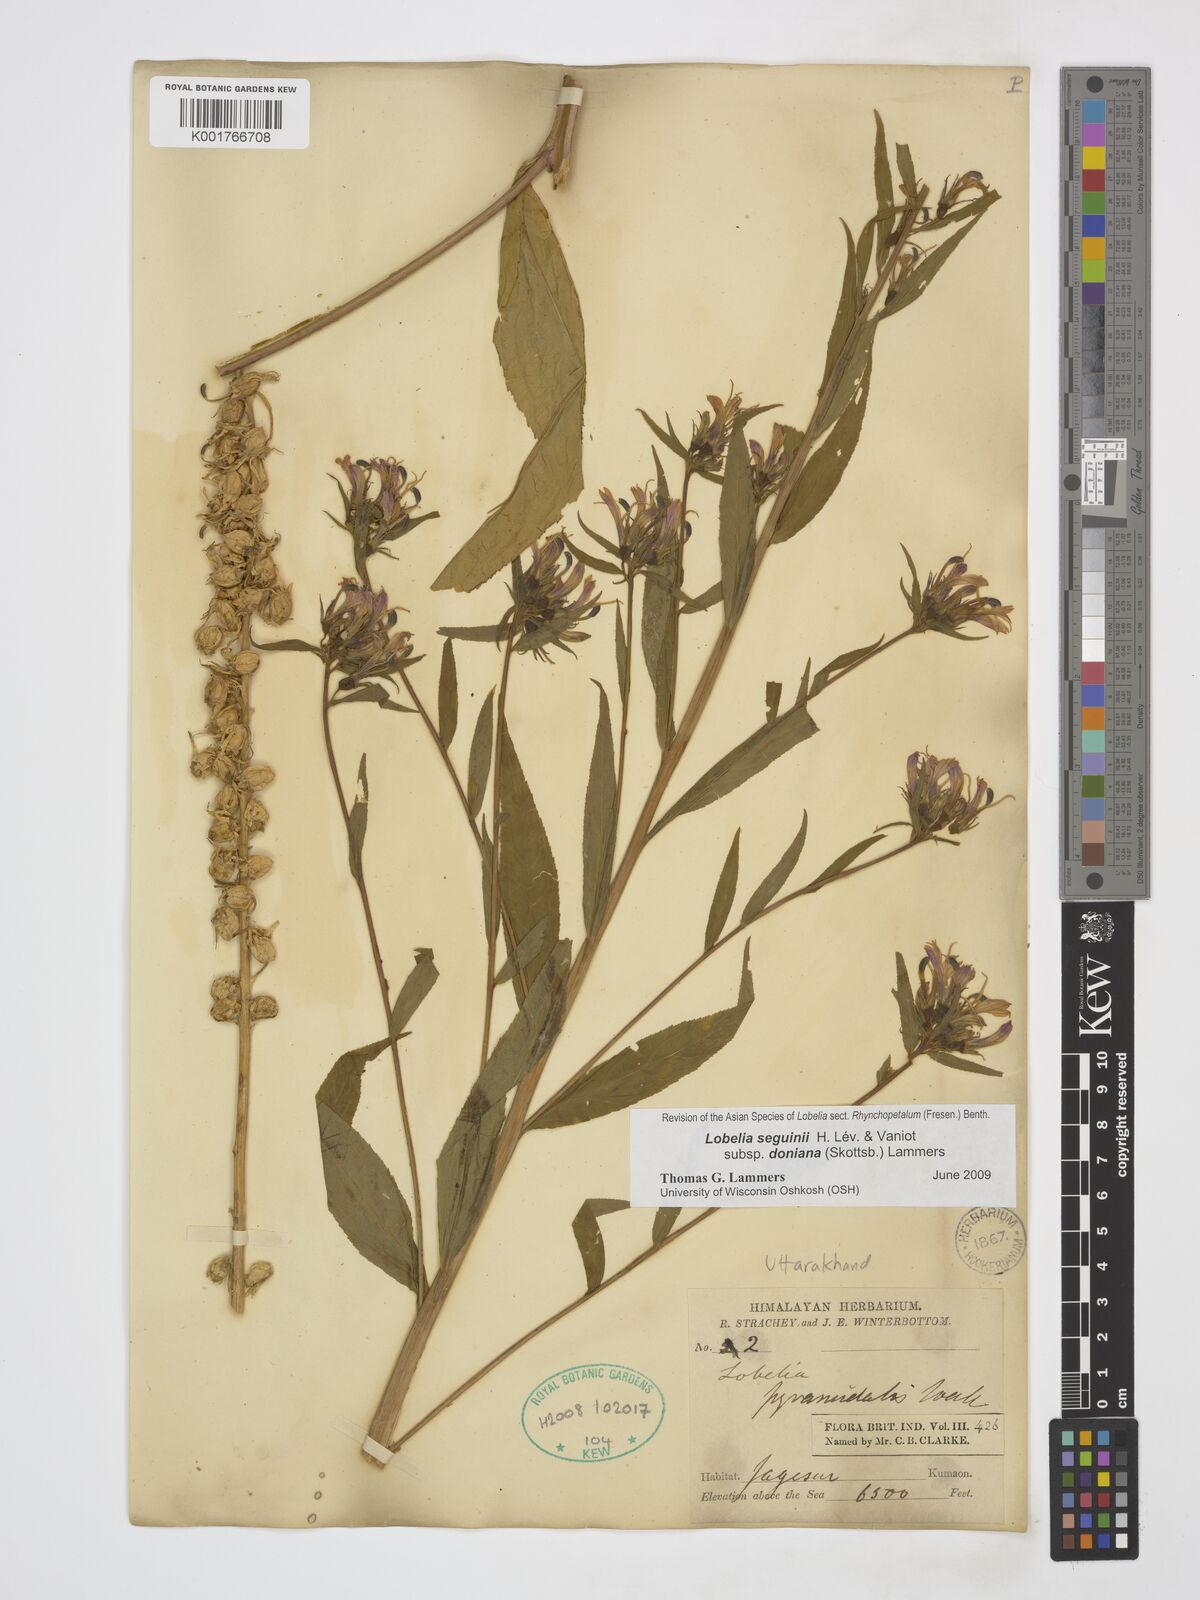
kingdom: Plantae
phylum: Tracheophyta
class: Magnoliopsida
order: Asterales
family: Campanulaceae
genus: Lobelia
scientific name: Lobelia seguinii
